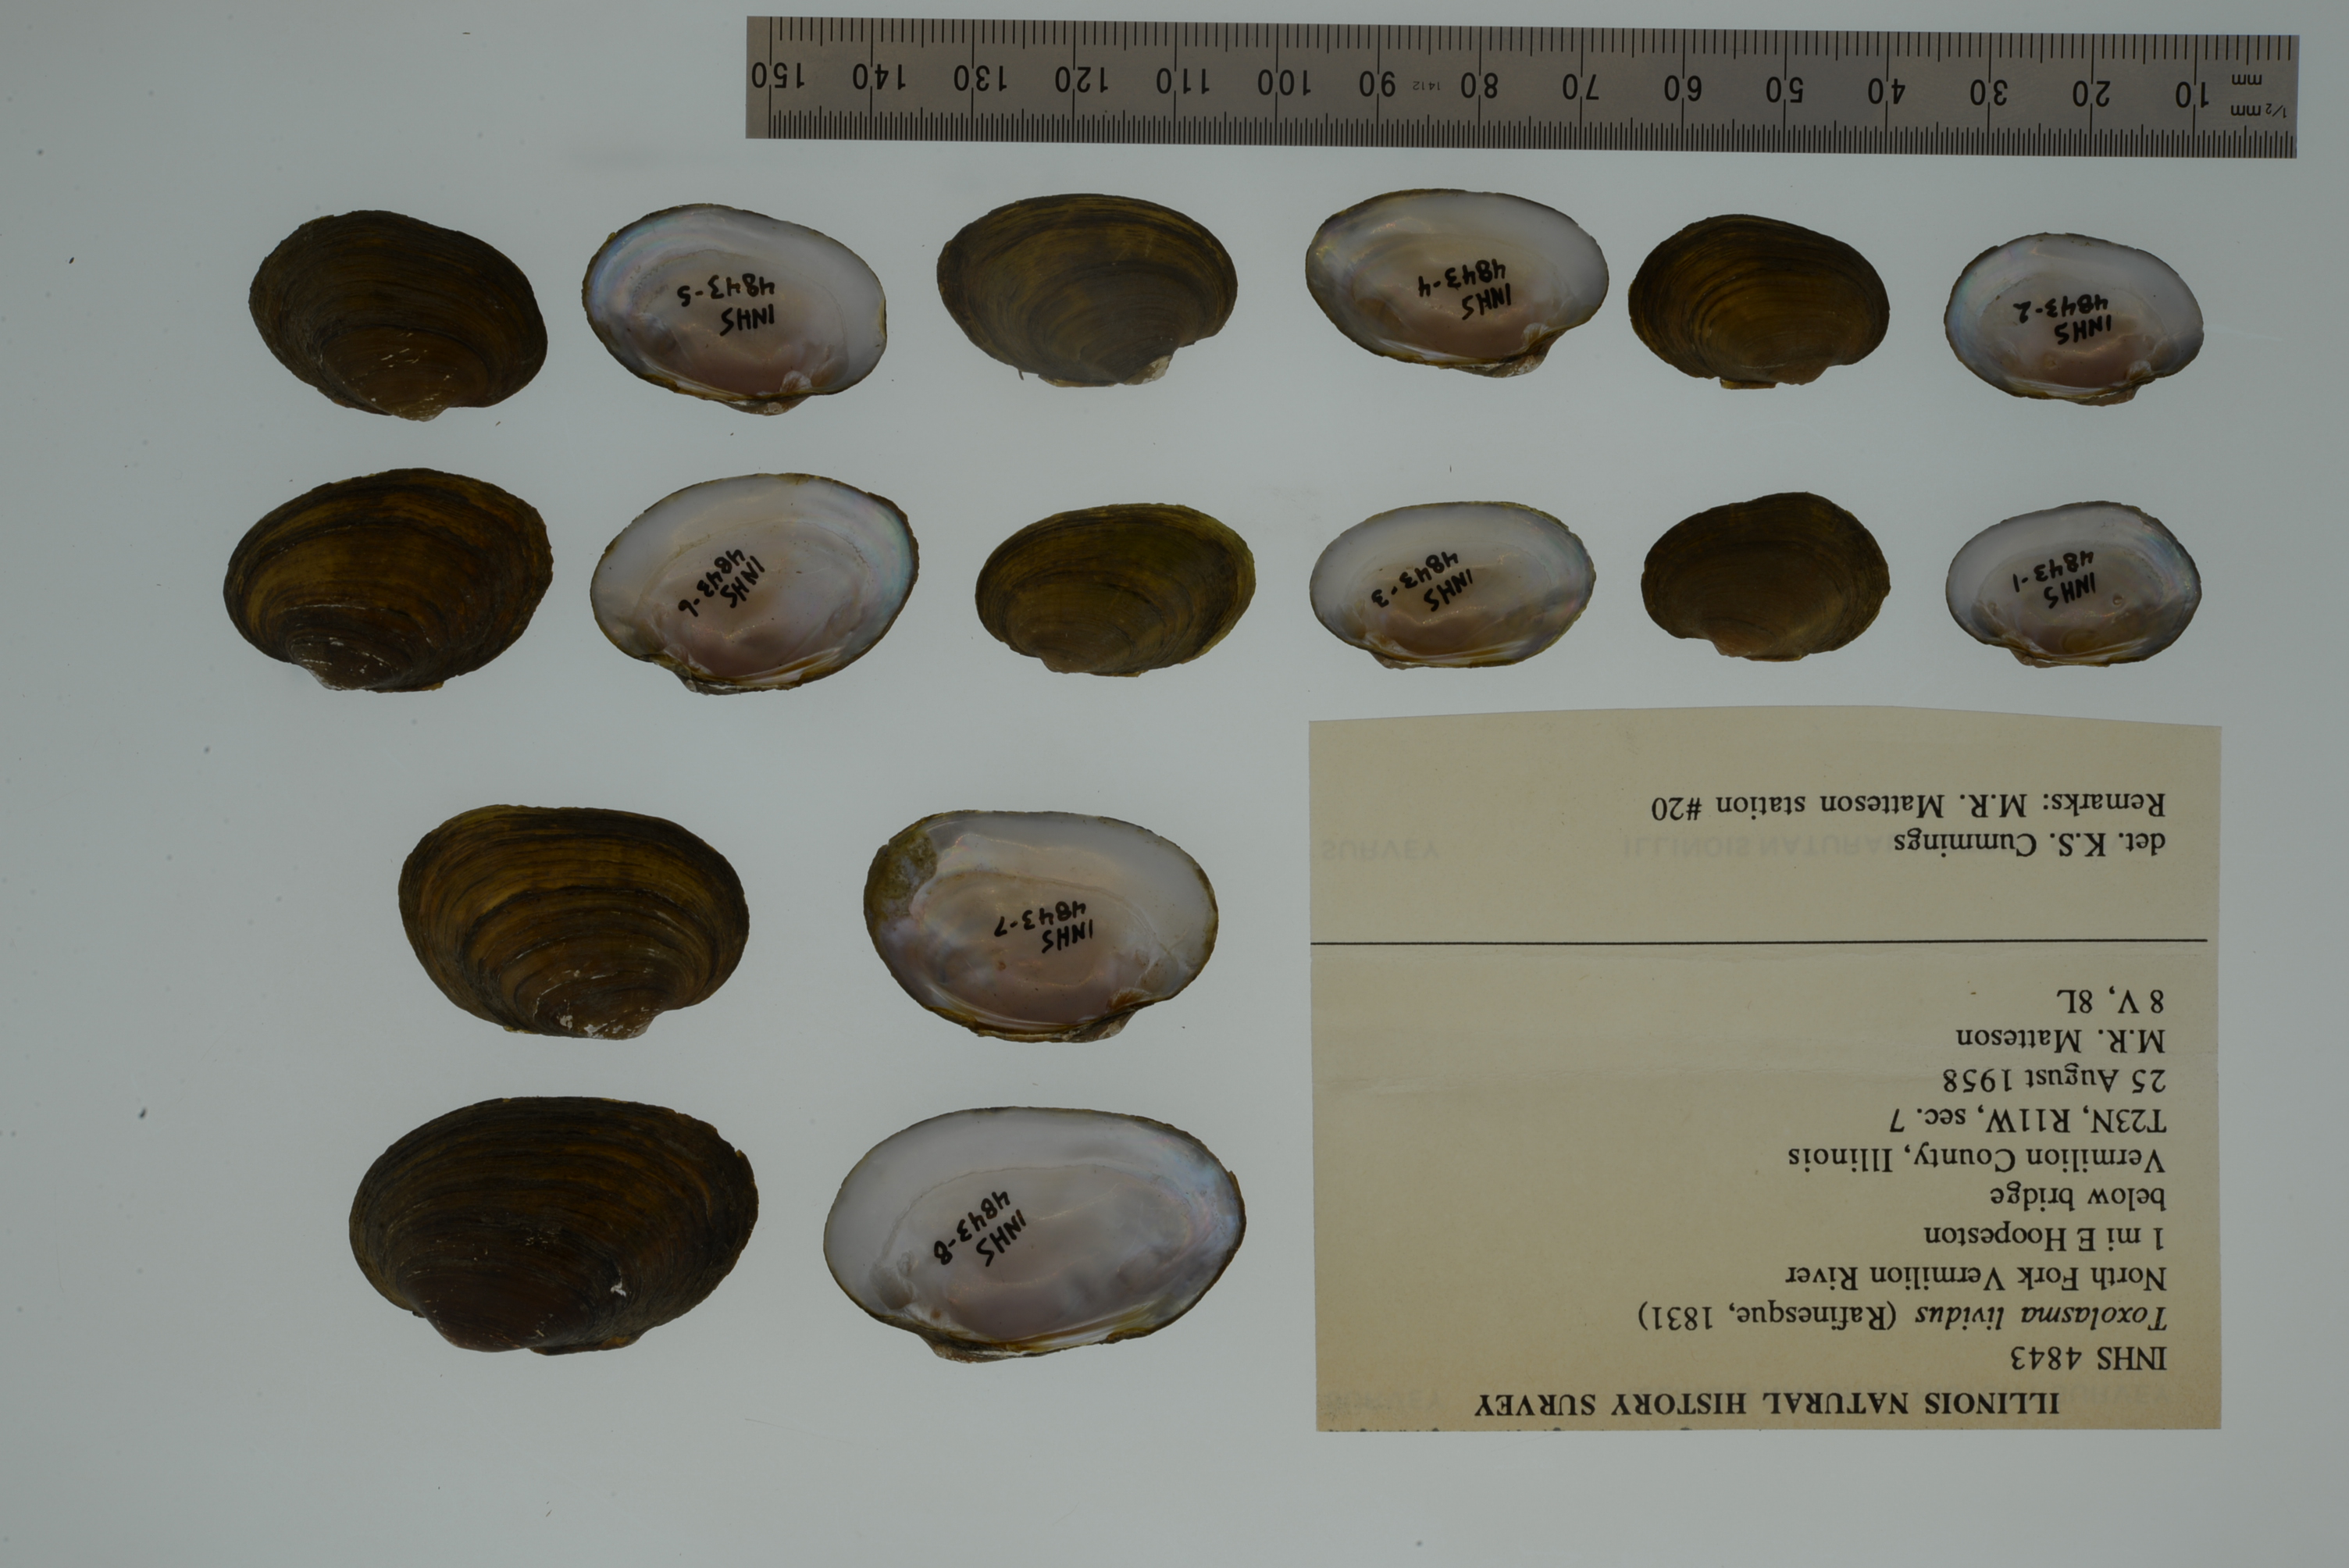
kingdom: Animalia
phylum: Mollusca
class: Bivalvia
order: Unionida
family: Unionidae
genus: Toxolasma
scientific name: Toxolasma lividum
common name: Purple lilliput
